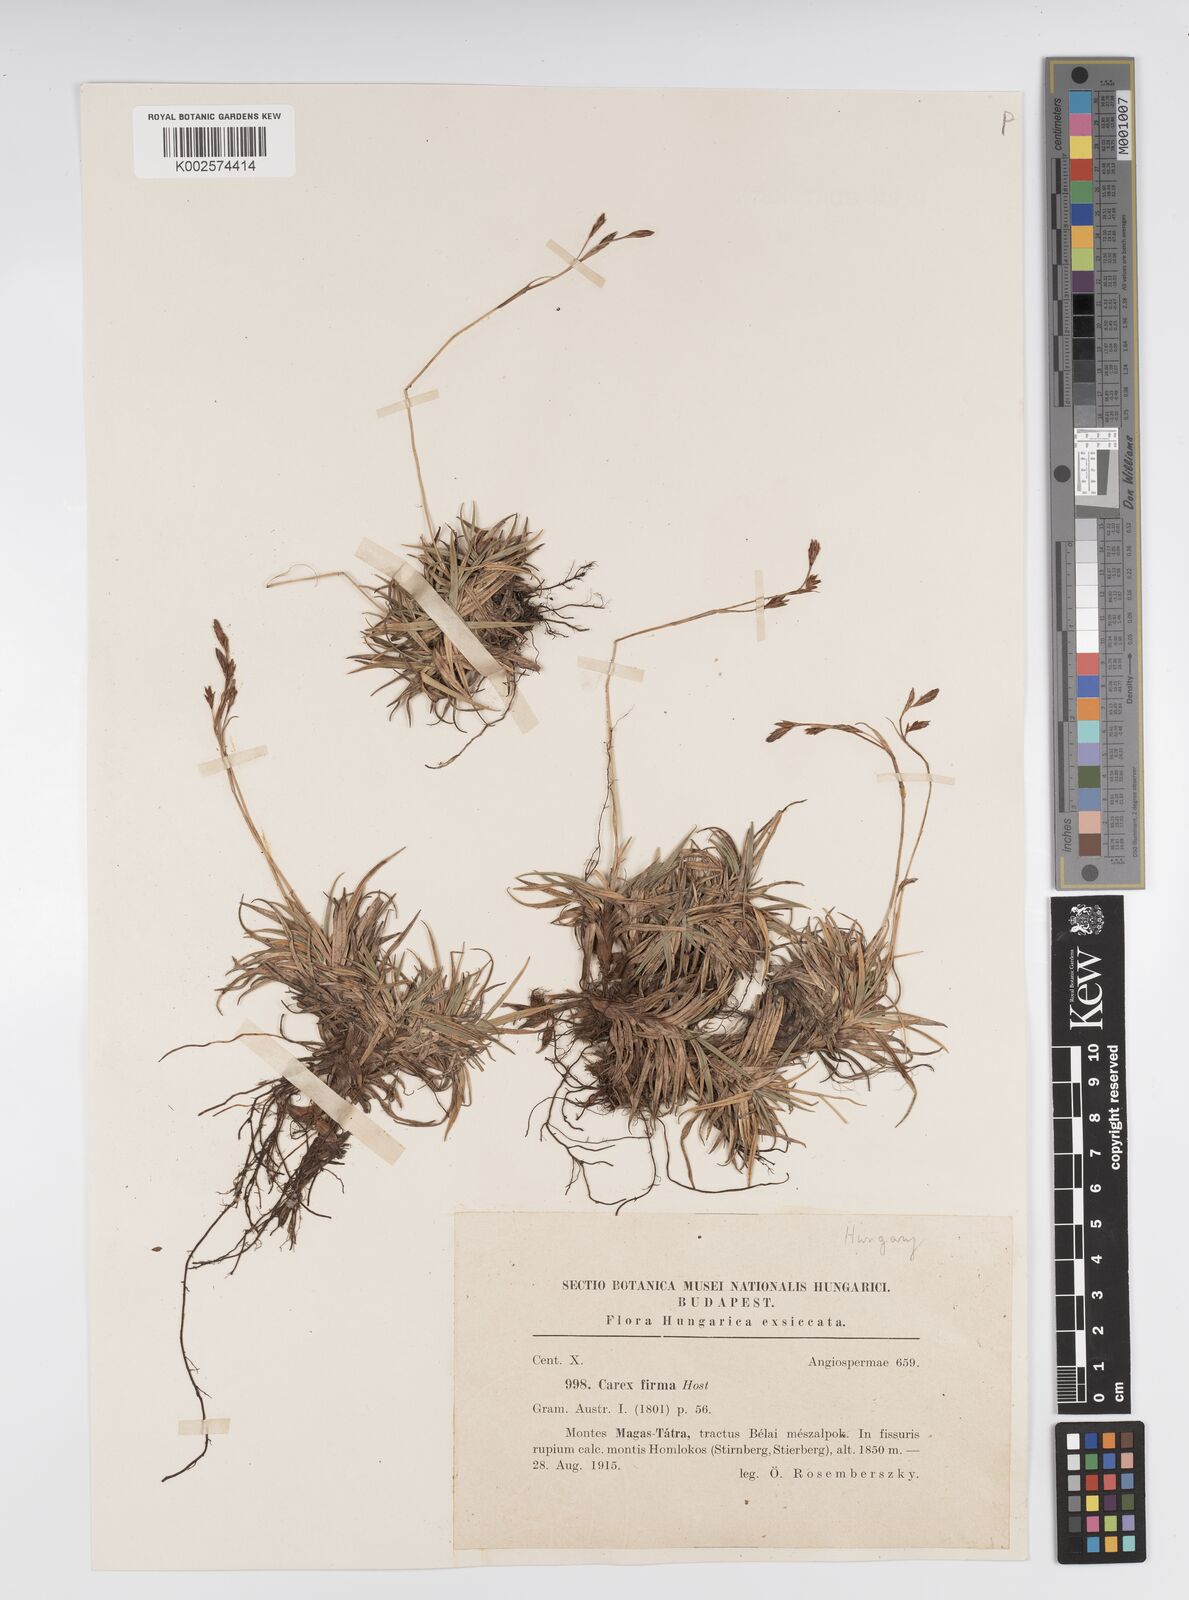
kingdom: Plantae
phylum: Tracheophyta
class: Liliopsida
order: Poales
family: Cyperaceae
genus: Carex
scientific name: Carex firma
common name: Dwarf pillow sedge
